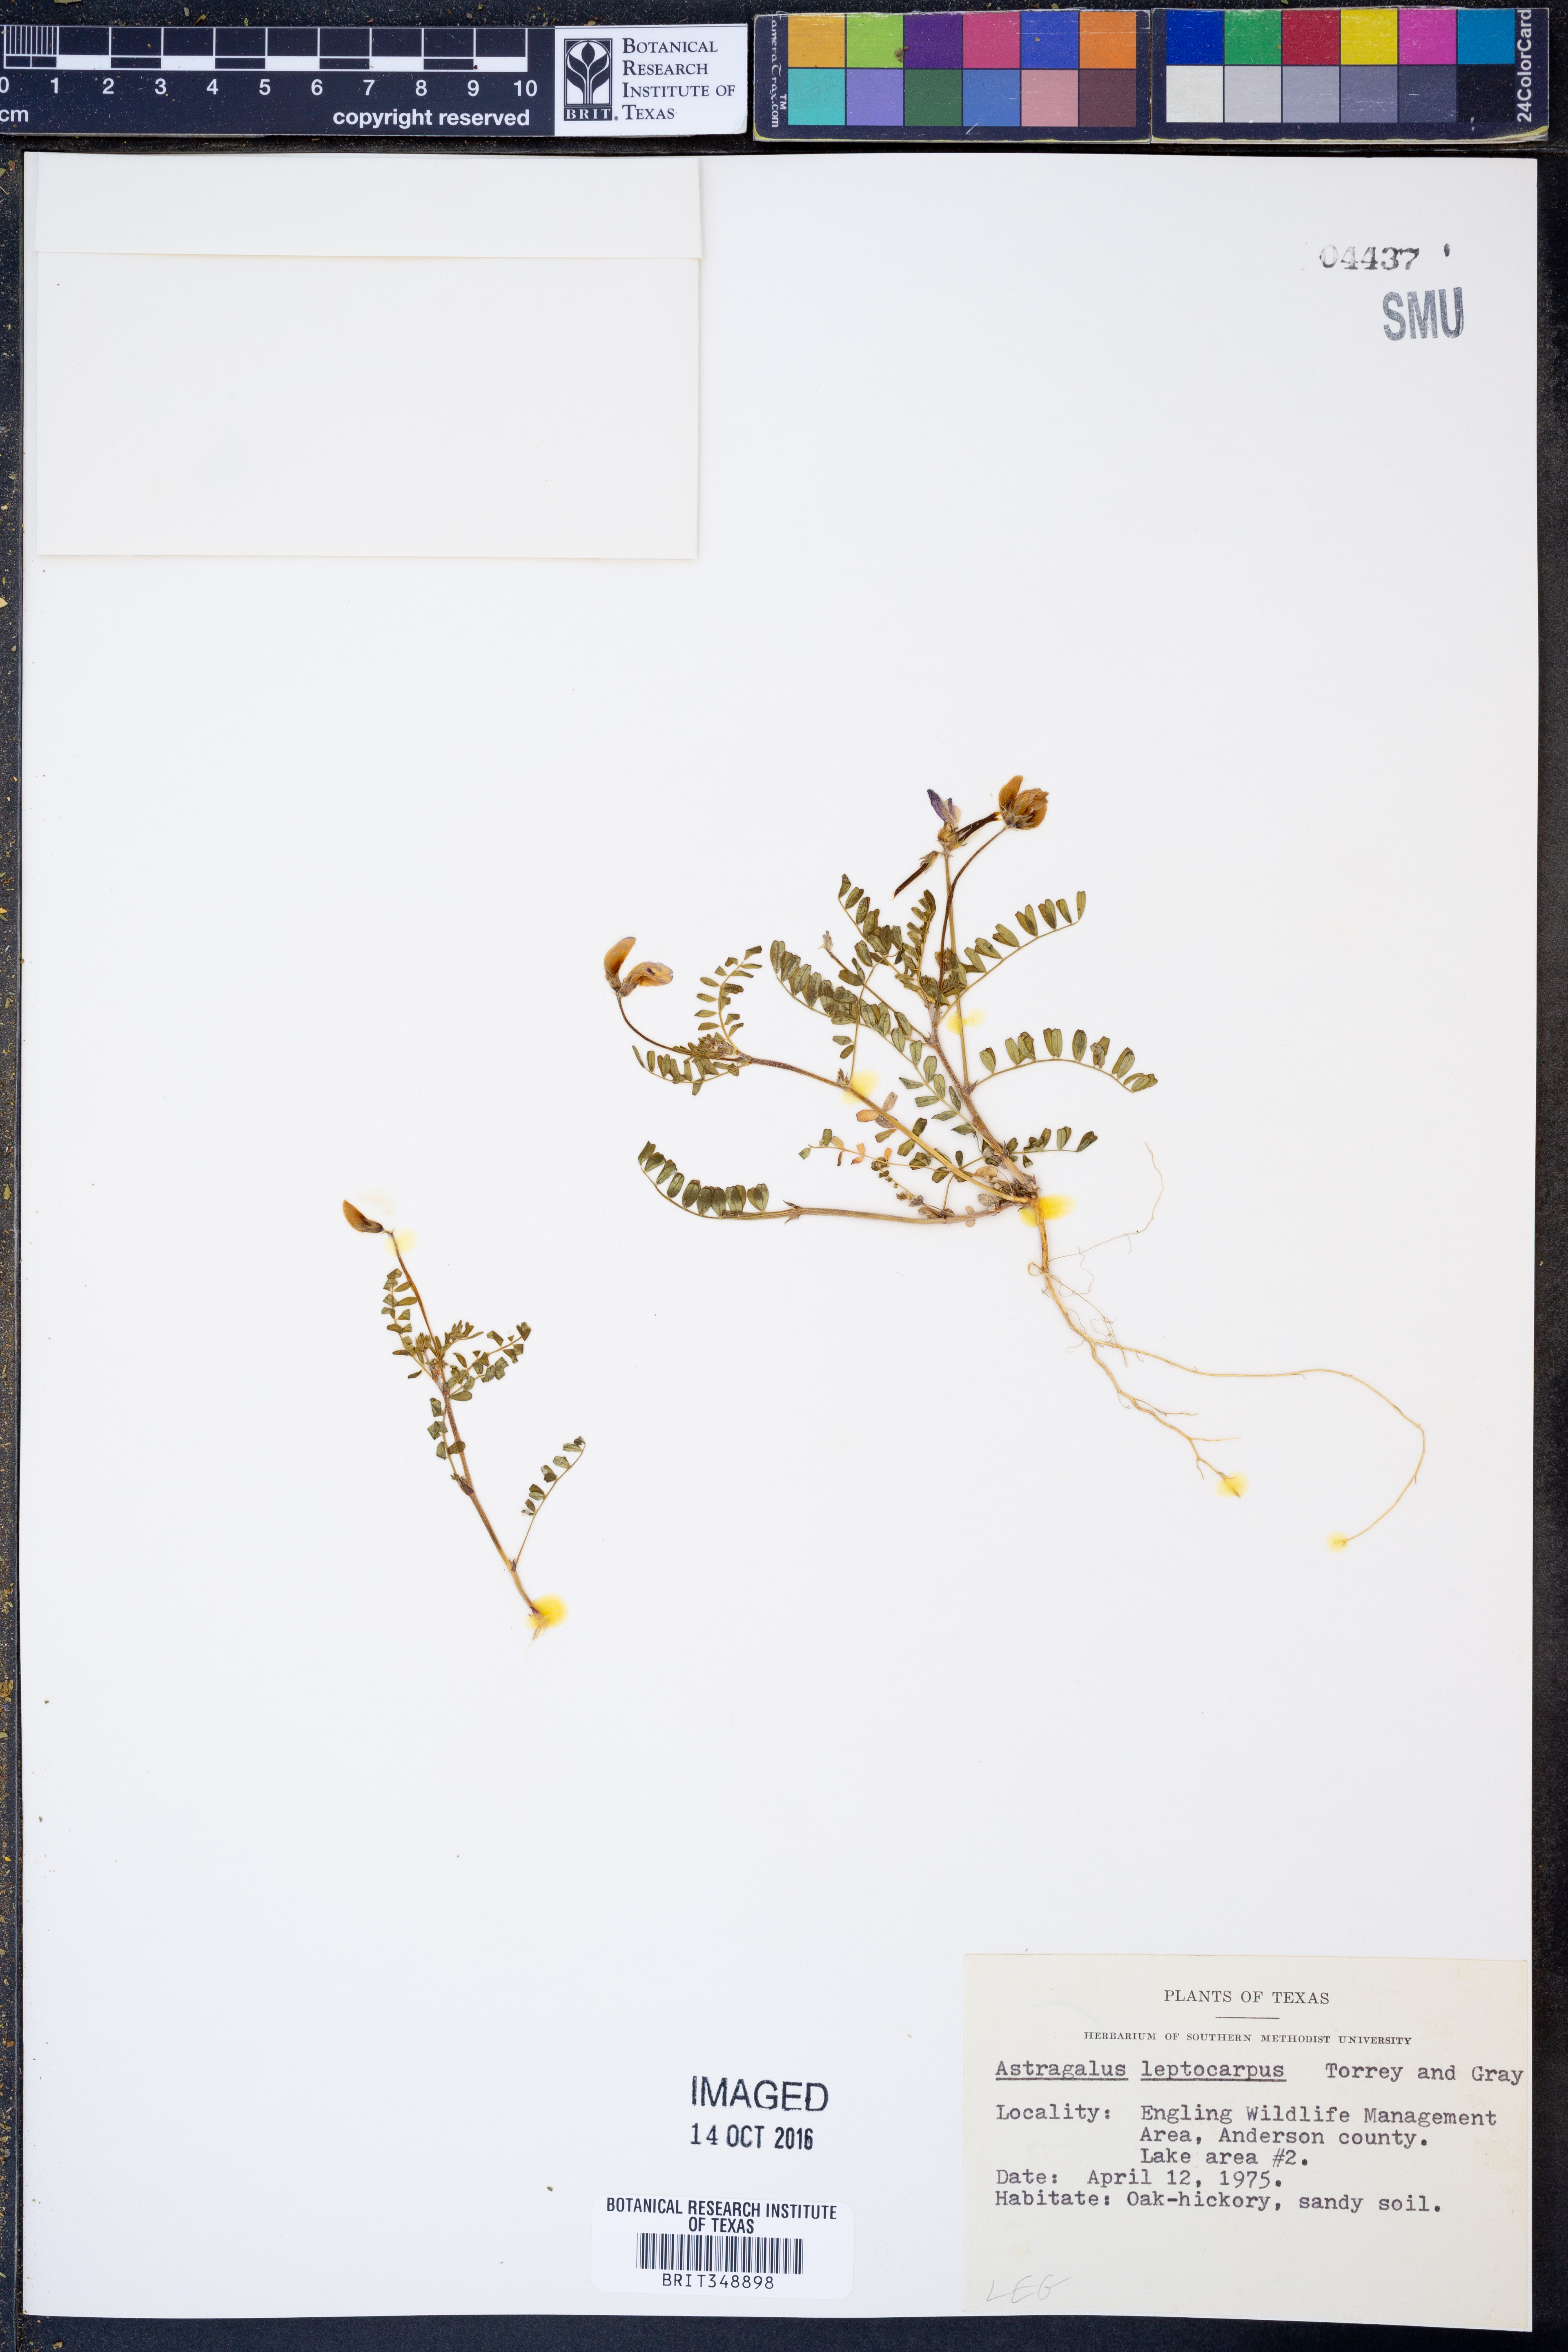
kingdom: Plantae
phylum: Tracheophyta
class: Magnoliopsida
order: Fabales
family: Fabaceae
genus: Astragalus
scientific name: Astragalus leptocarpus
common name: Bodkin milk-vetch
